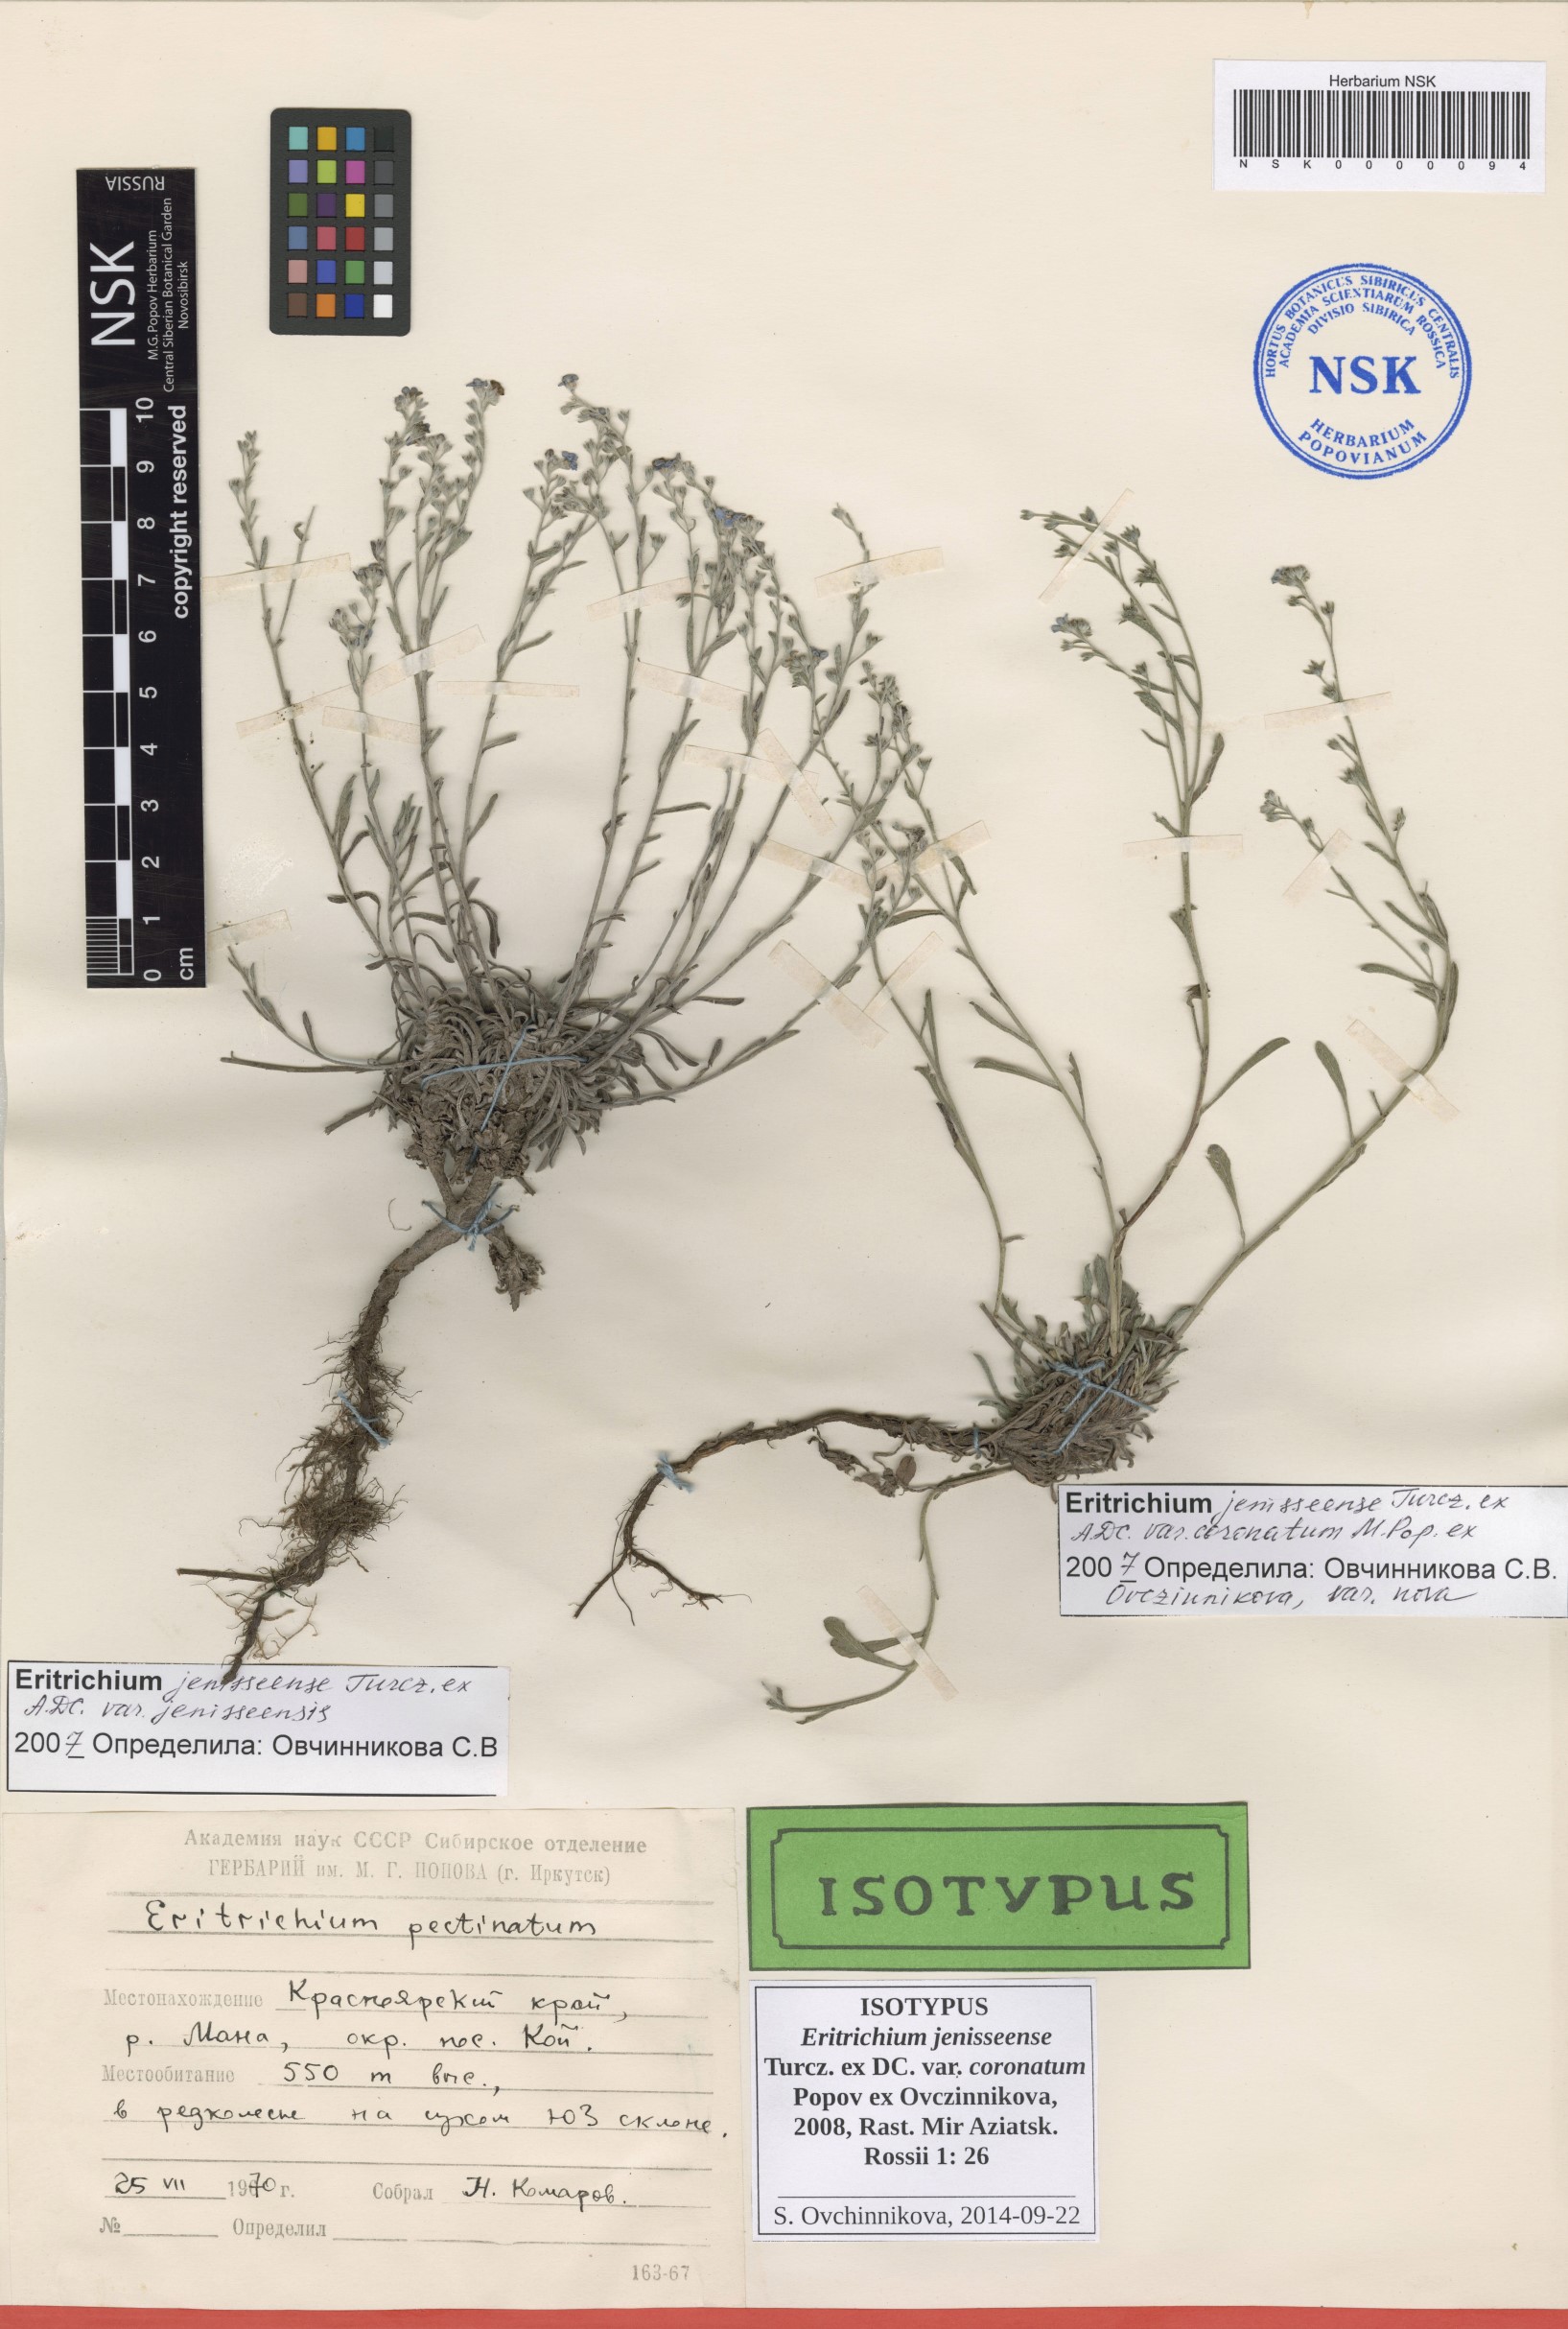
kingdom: Plantae
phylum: Tracheophyta
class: Magnoliopsida
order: Boraginales
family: Boraginaceae
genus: Eritrichium
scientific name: Eritrichium jenisseense
